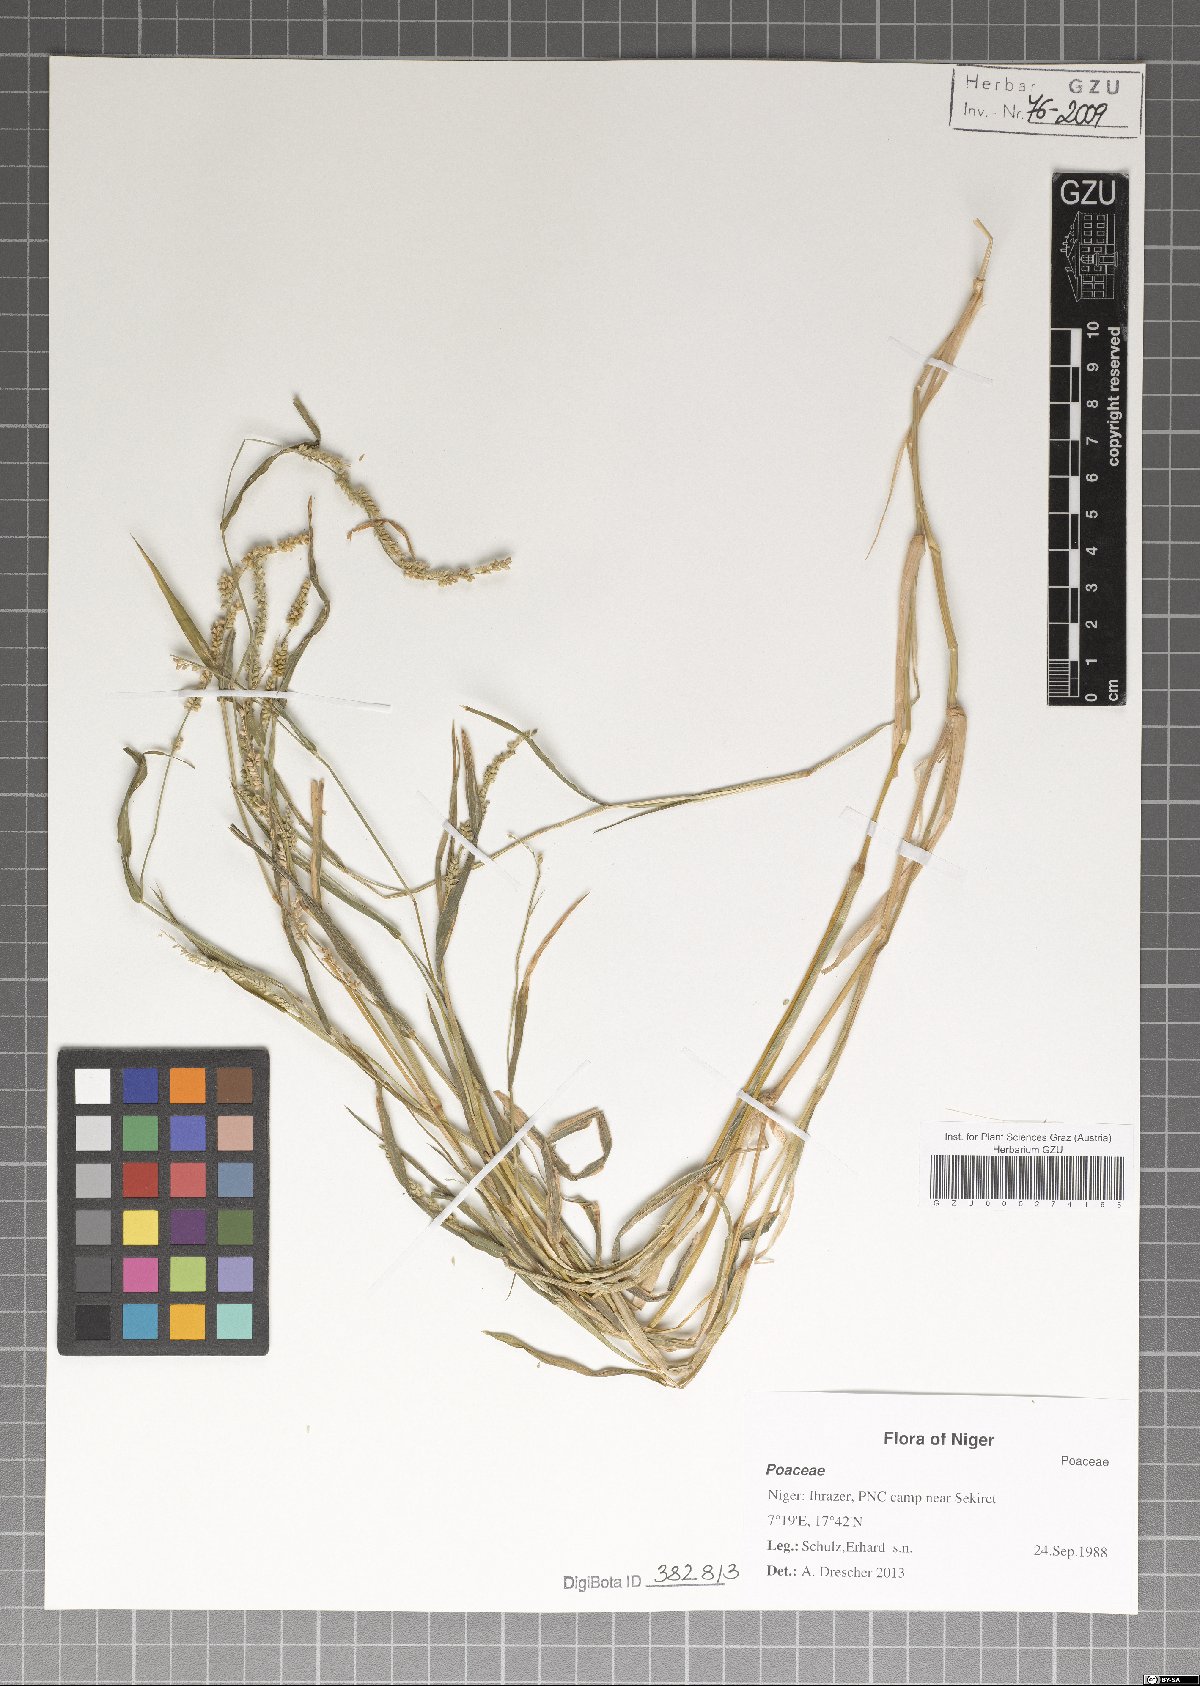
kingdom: Plantae
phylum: Tracheophyta
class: Liliopsida
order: Poales
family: Poaceae
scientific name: Poaceae
